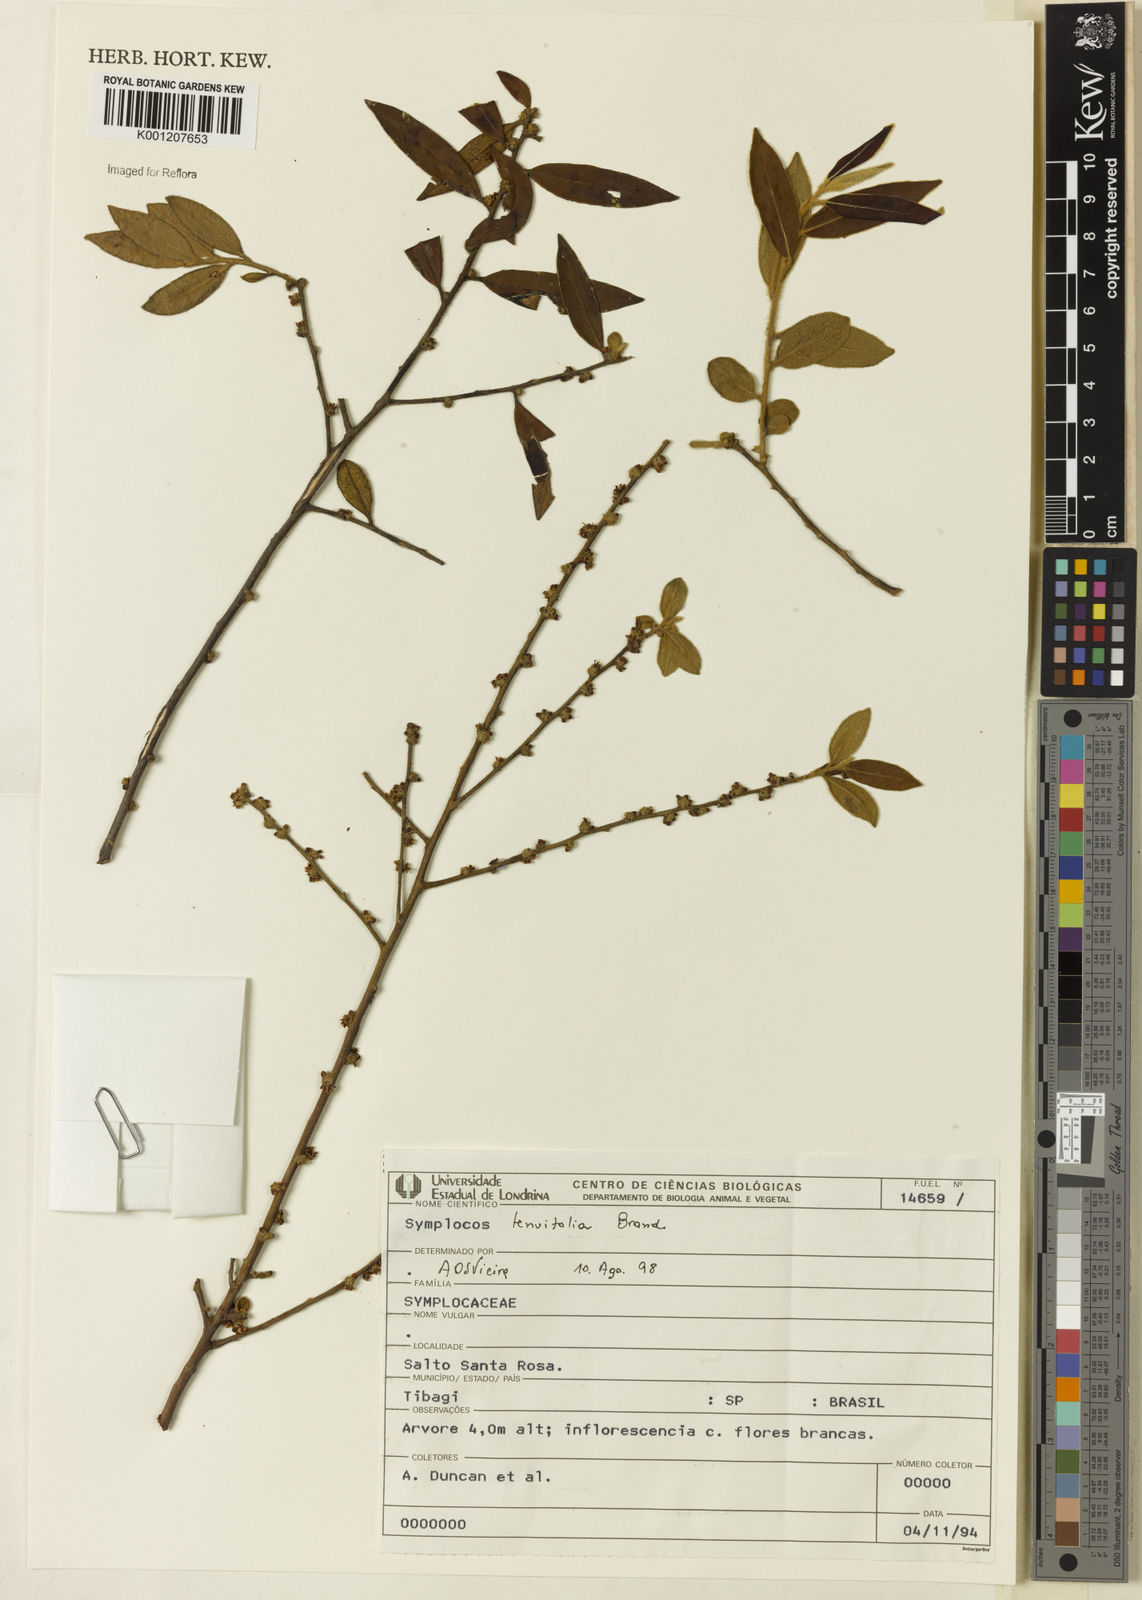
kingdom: Plantae
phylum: Tracheophyta
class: Magnoliopsida
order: Ericales
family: Symplocaceae
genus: Symplocos
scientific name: Symplocos tenuifolia
